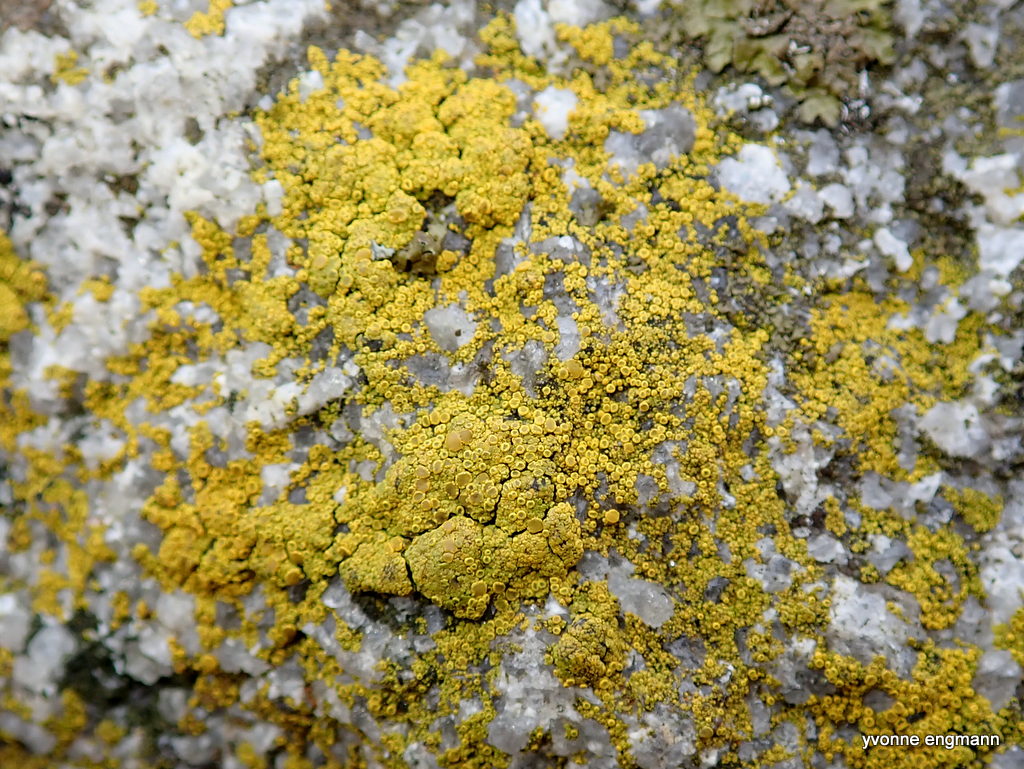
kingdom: Fungi
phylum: Ascomycota
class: Candelariomycetes
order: Candelariales
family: Candelariaceae
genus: Candelariella
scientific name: Candelariella vitellina
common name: almindelig æggeblommelav
